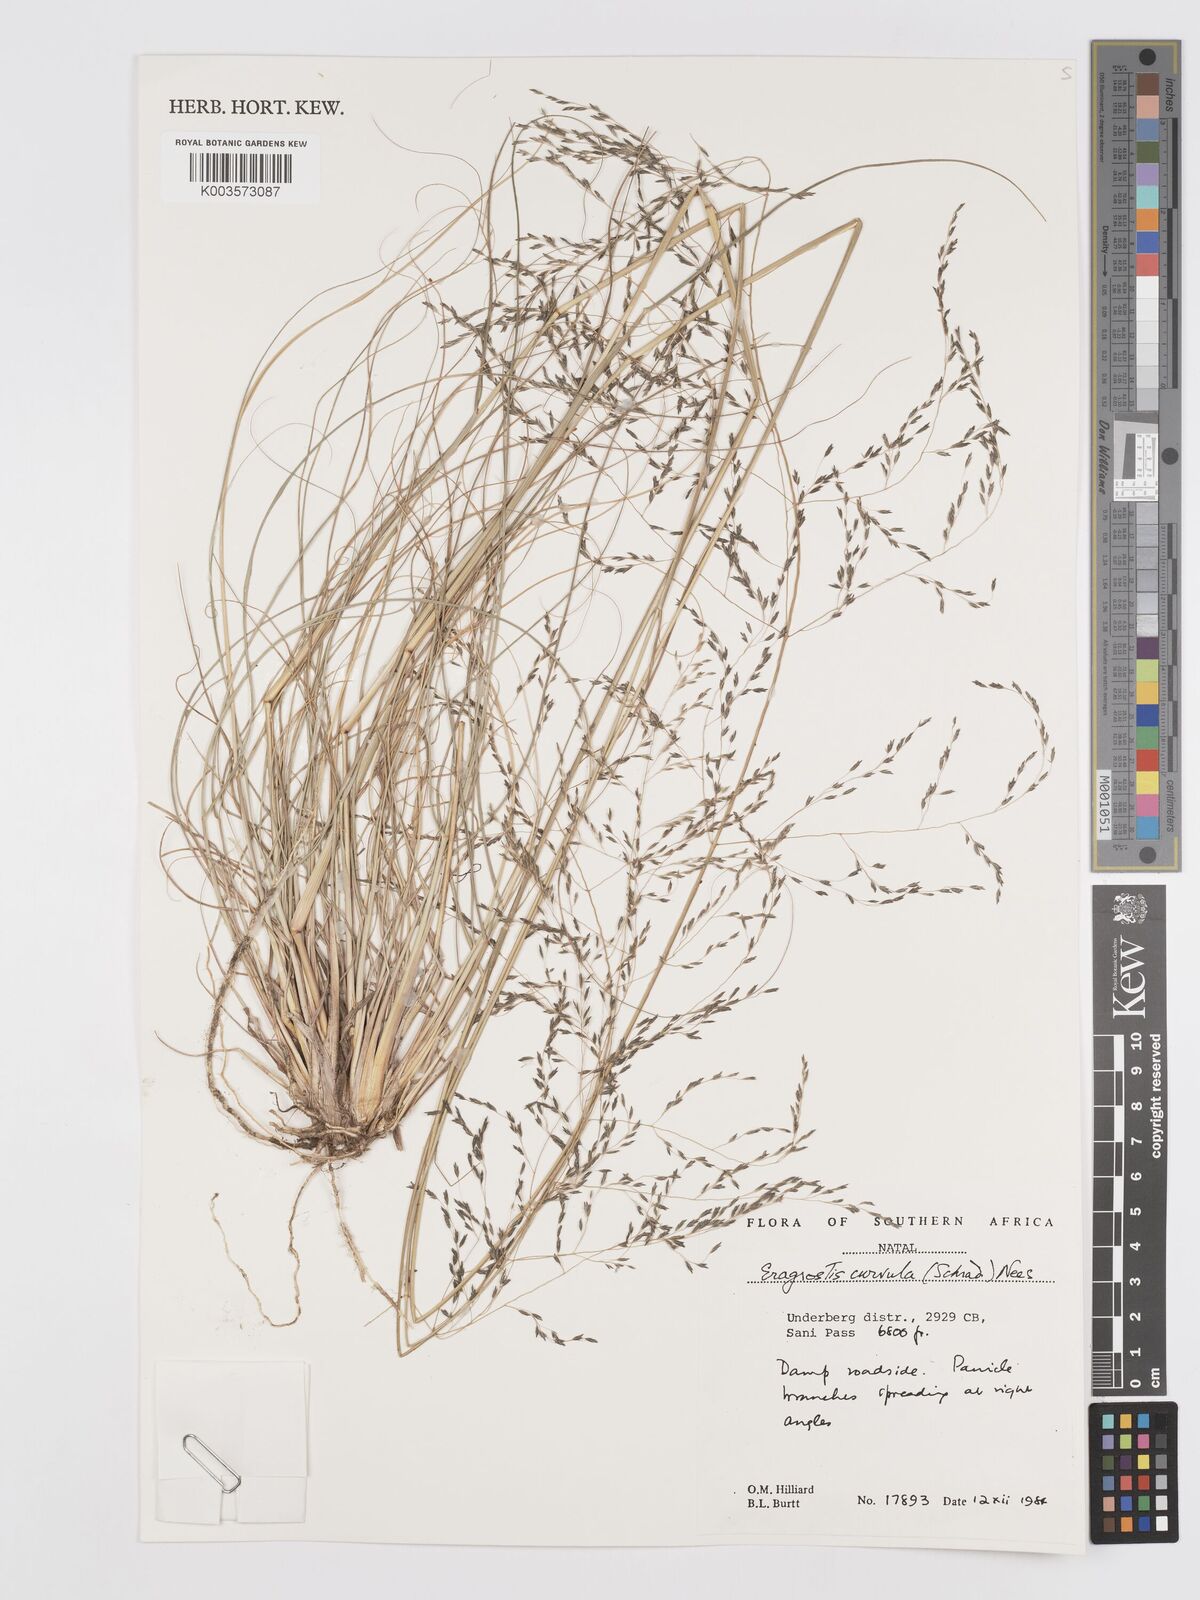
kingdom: Plantae
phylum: Tracheophyta
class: Liliopsida
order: Poales
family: Poaceae
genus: Eragrostis
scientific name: Eragrostis curvula
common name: African love-grass
